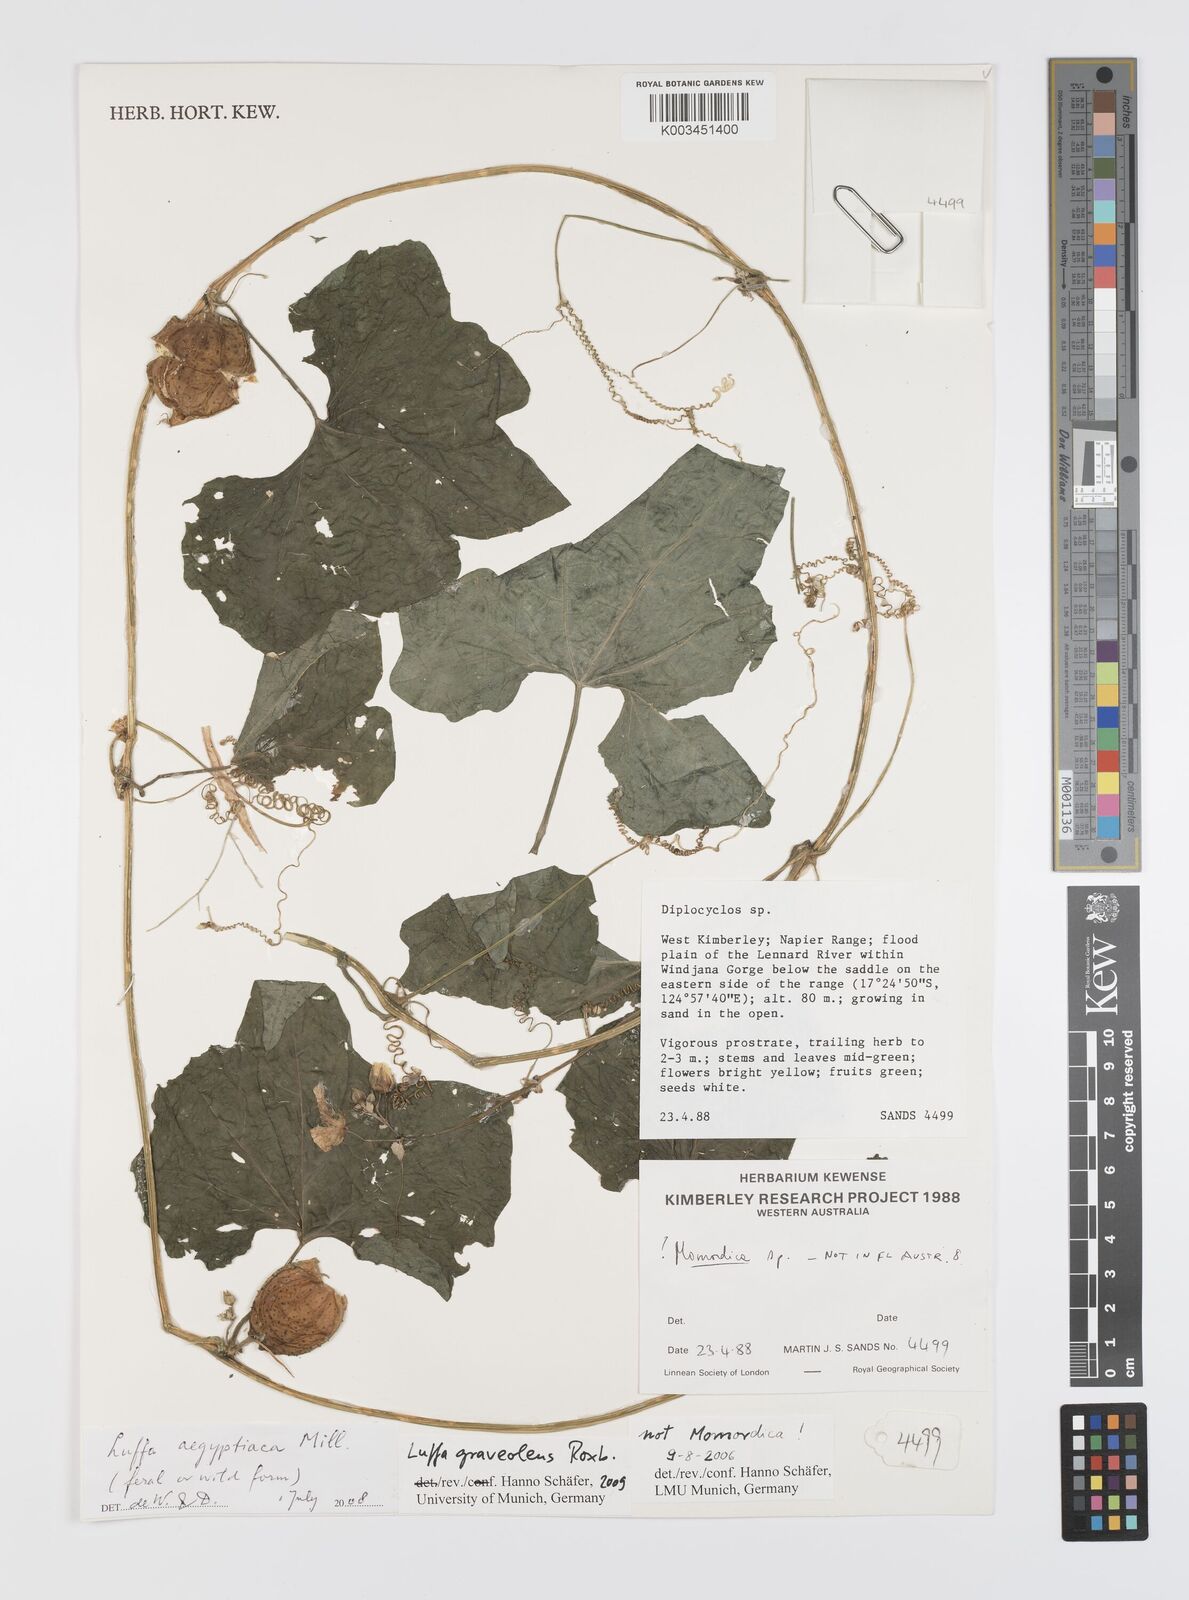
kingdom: Plantae
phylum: Tracheophyta
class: Magnoliopsida
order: Cucurbitales
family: Cucurbitaceae
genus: Luffa
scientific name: Luffa graveolens
